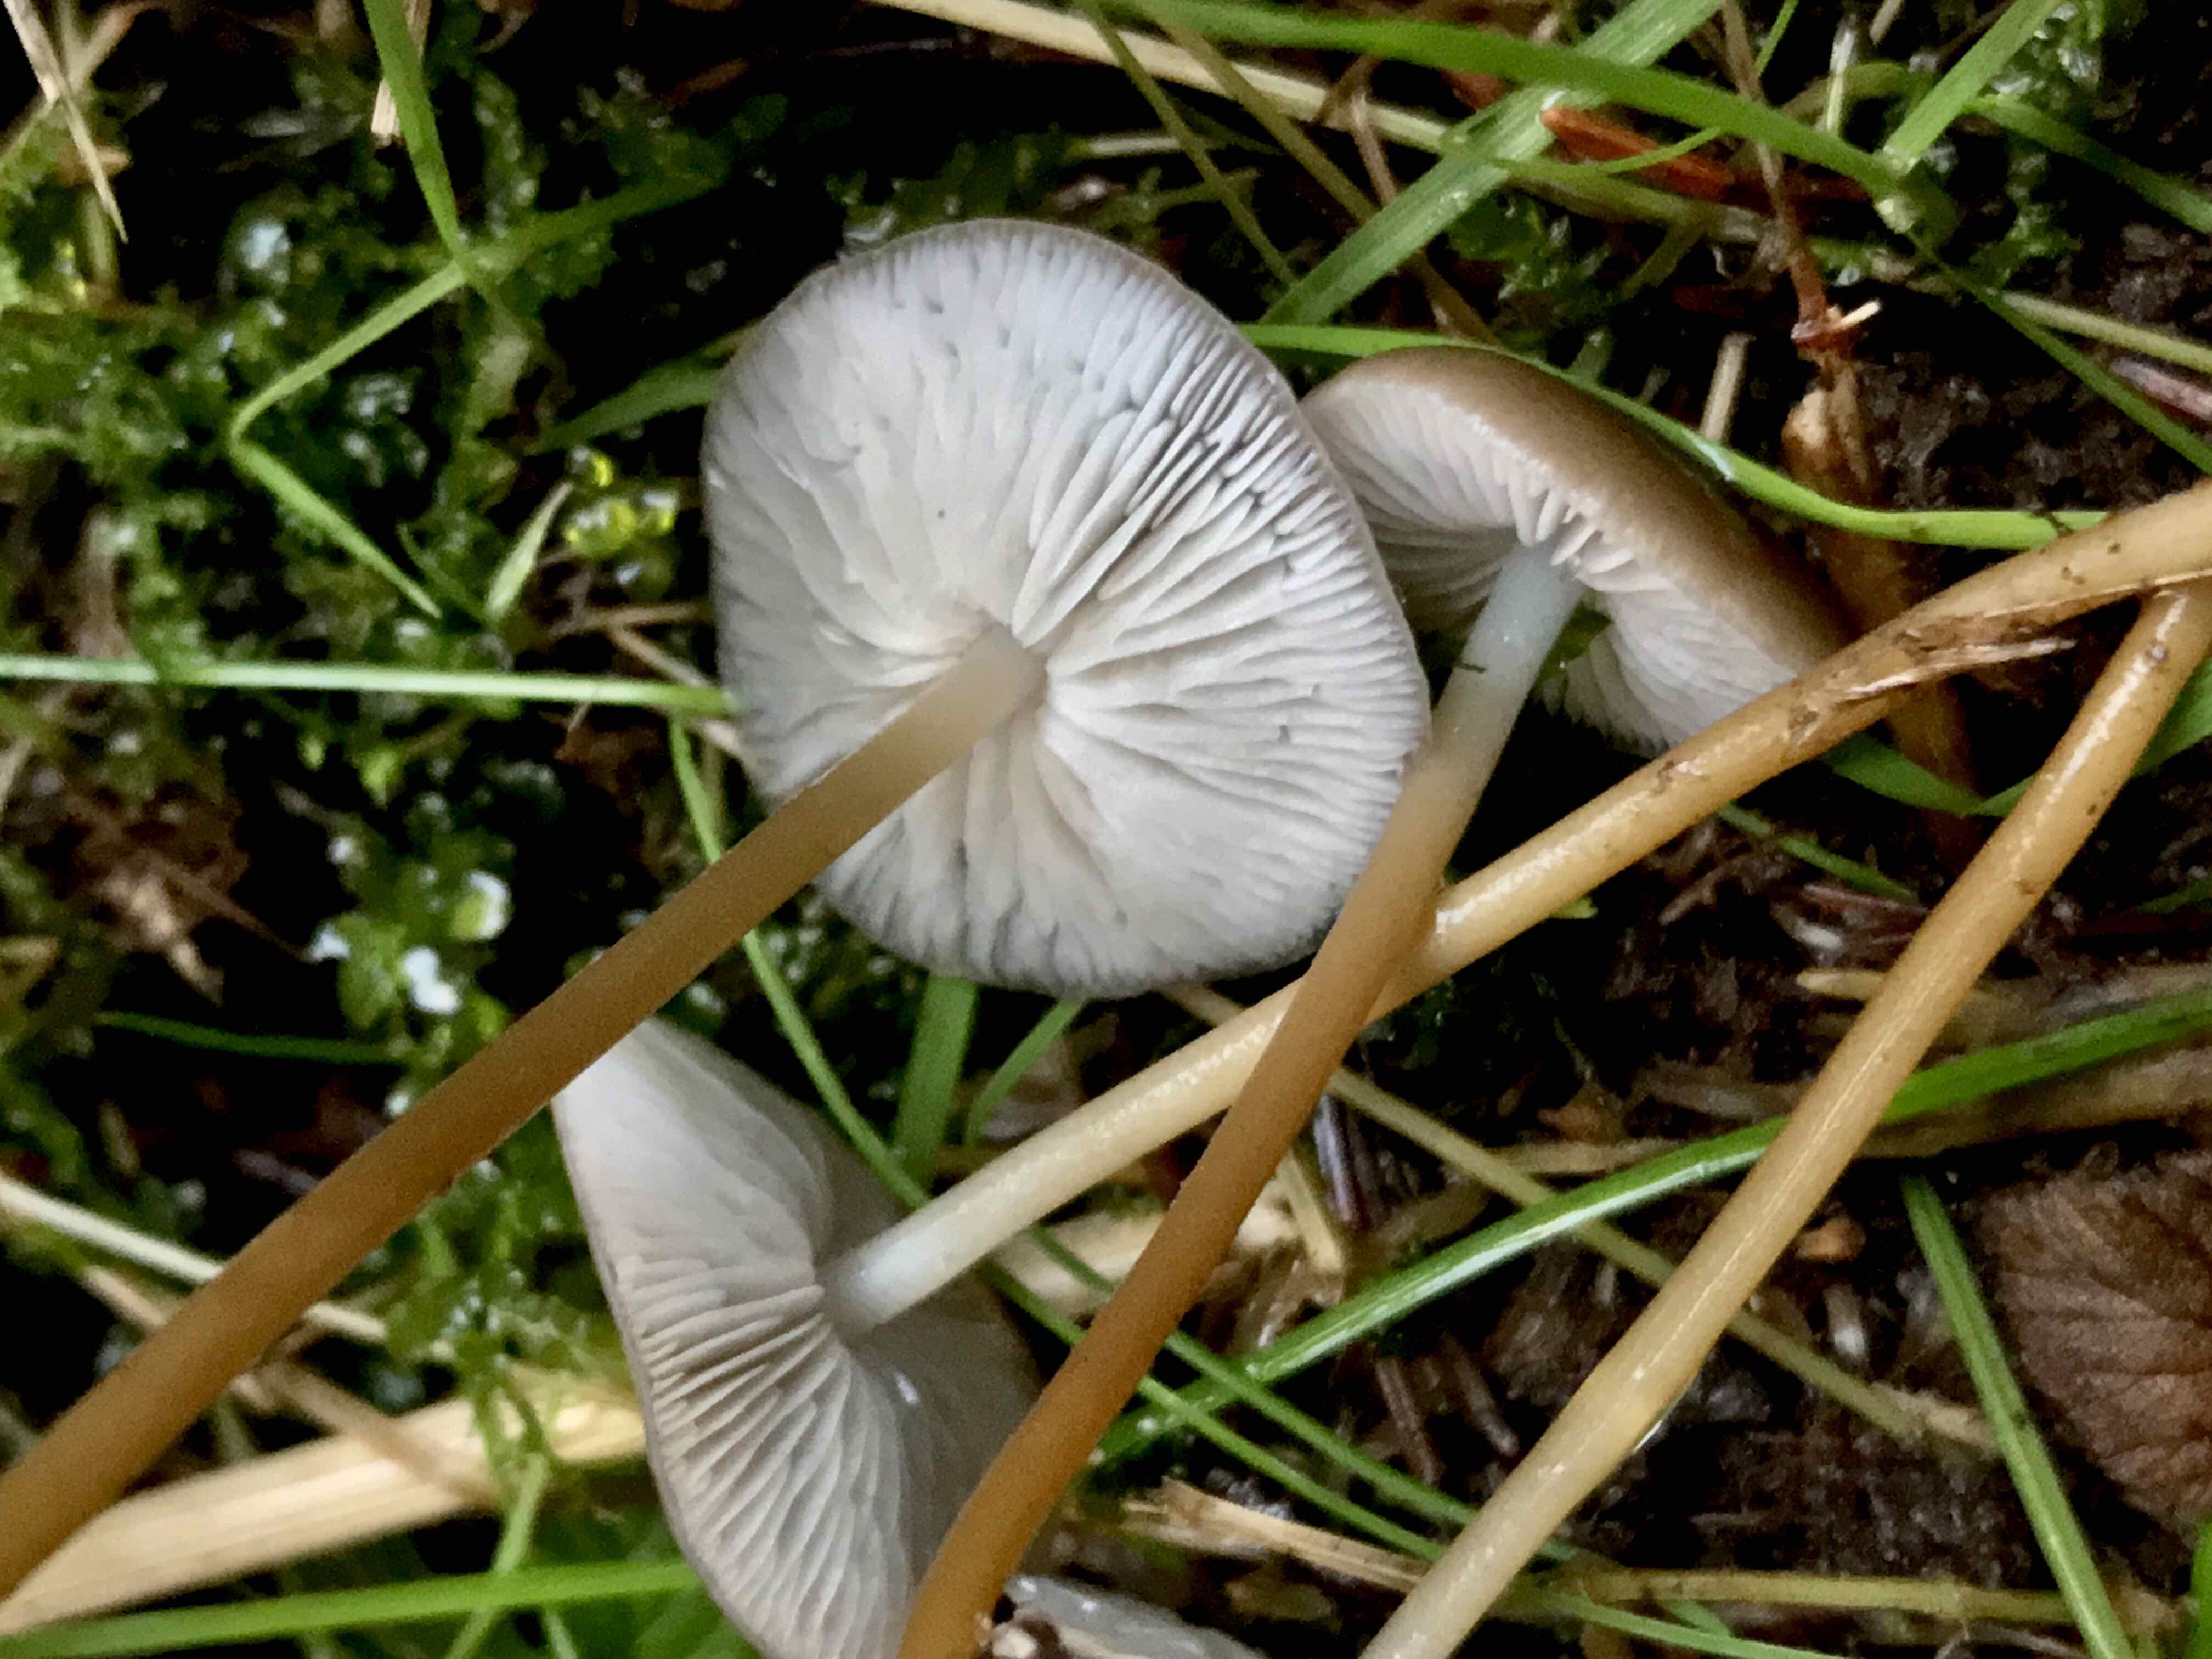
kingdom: Fungi
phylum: Basidiomycota
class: Agaricomycetes
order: Agaricales
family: Physalacriaceae
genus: Strobilurus
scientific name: Strobilurus esculentus
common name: gran-koglehat
